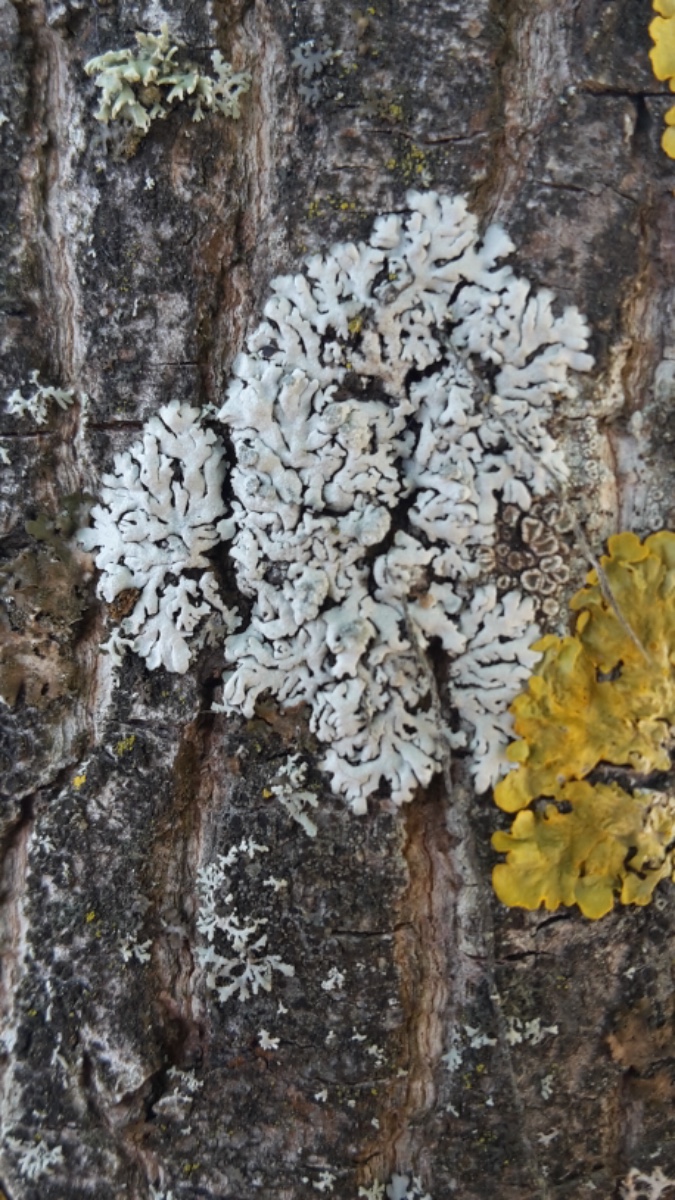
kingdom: Fungi
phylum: Ascomycota
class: Lecanoromycetes
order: Caliciales
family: Physciaceae
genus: Physcia
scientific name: Physcia caesia
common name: blågrå rosetlav
